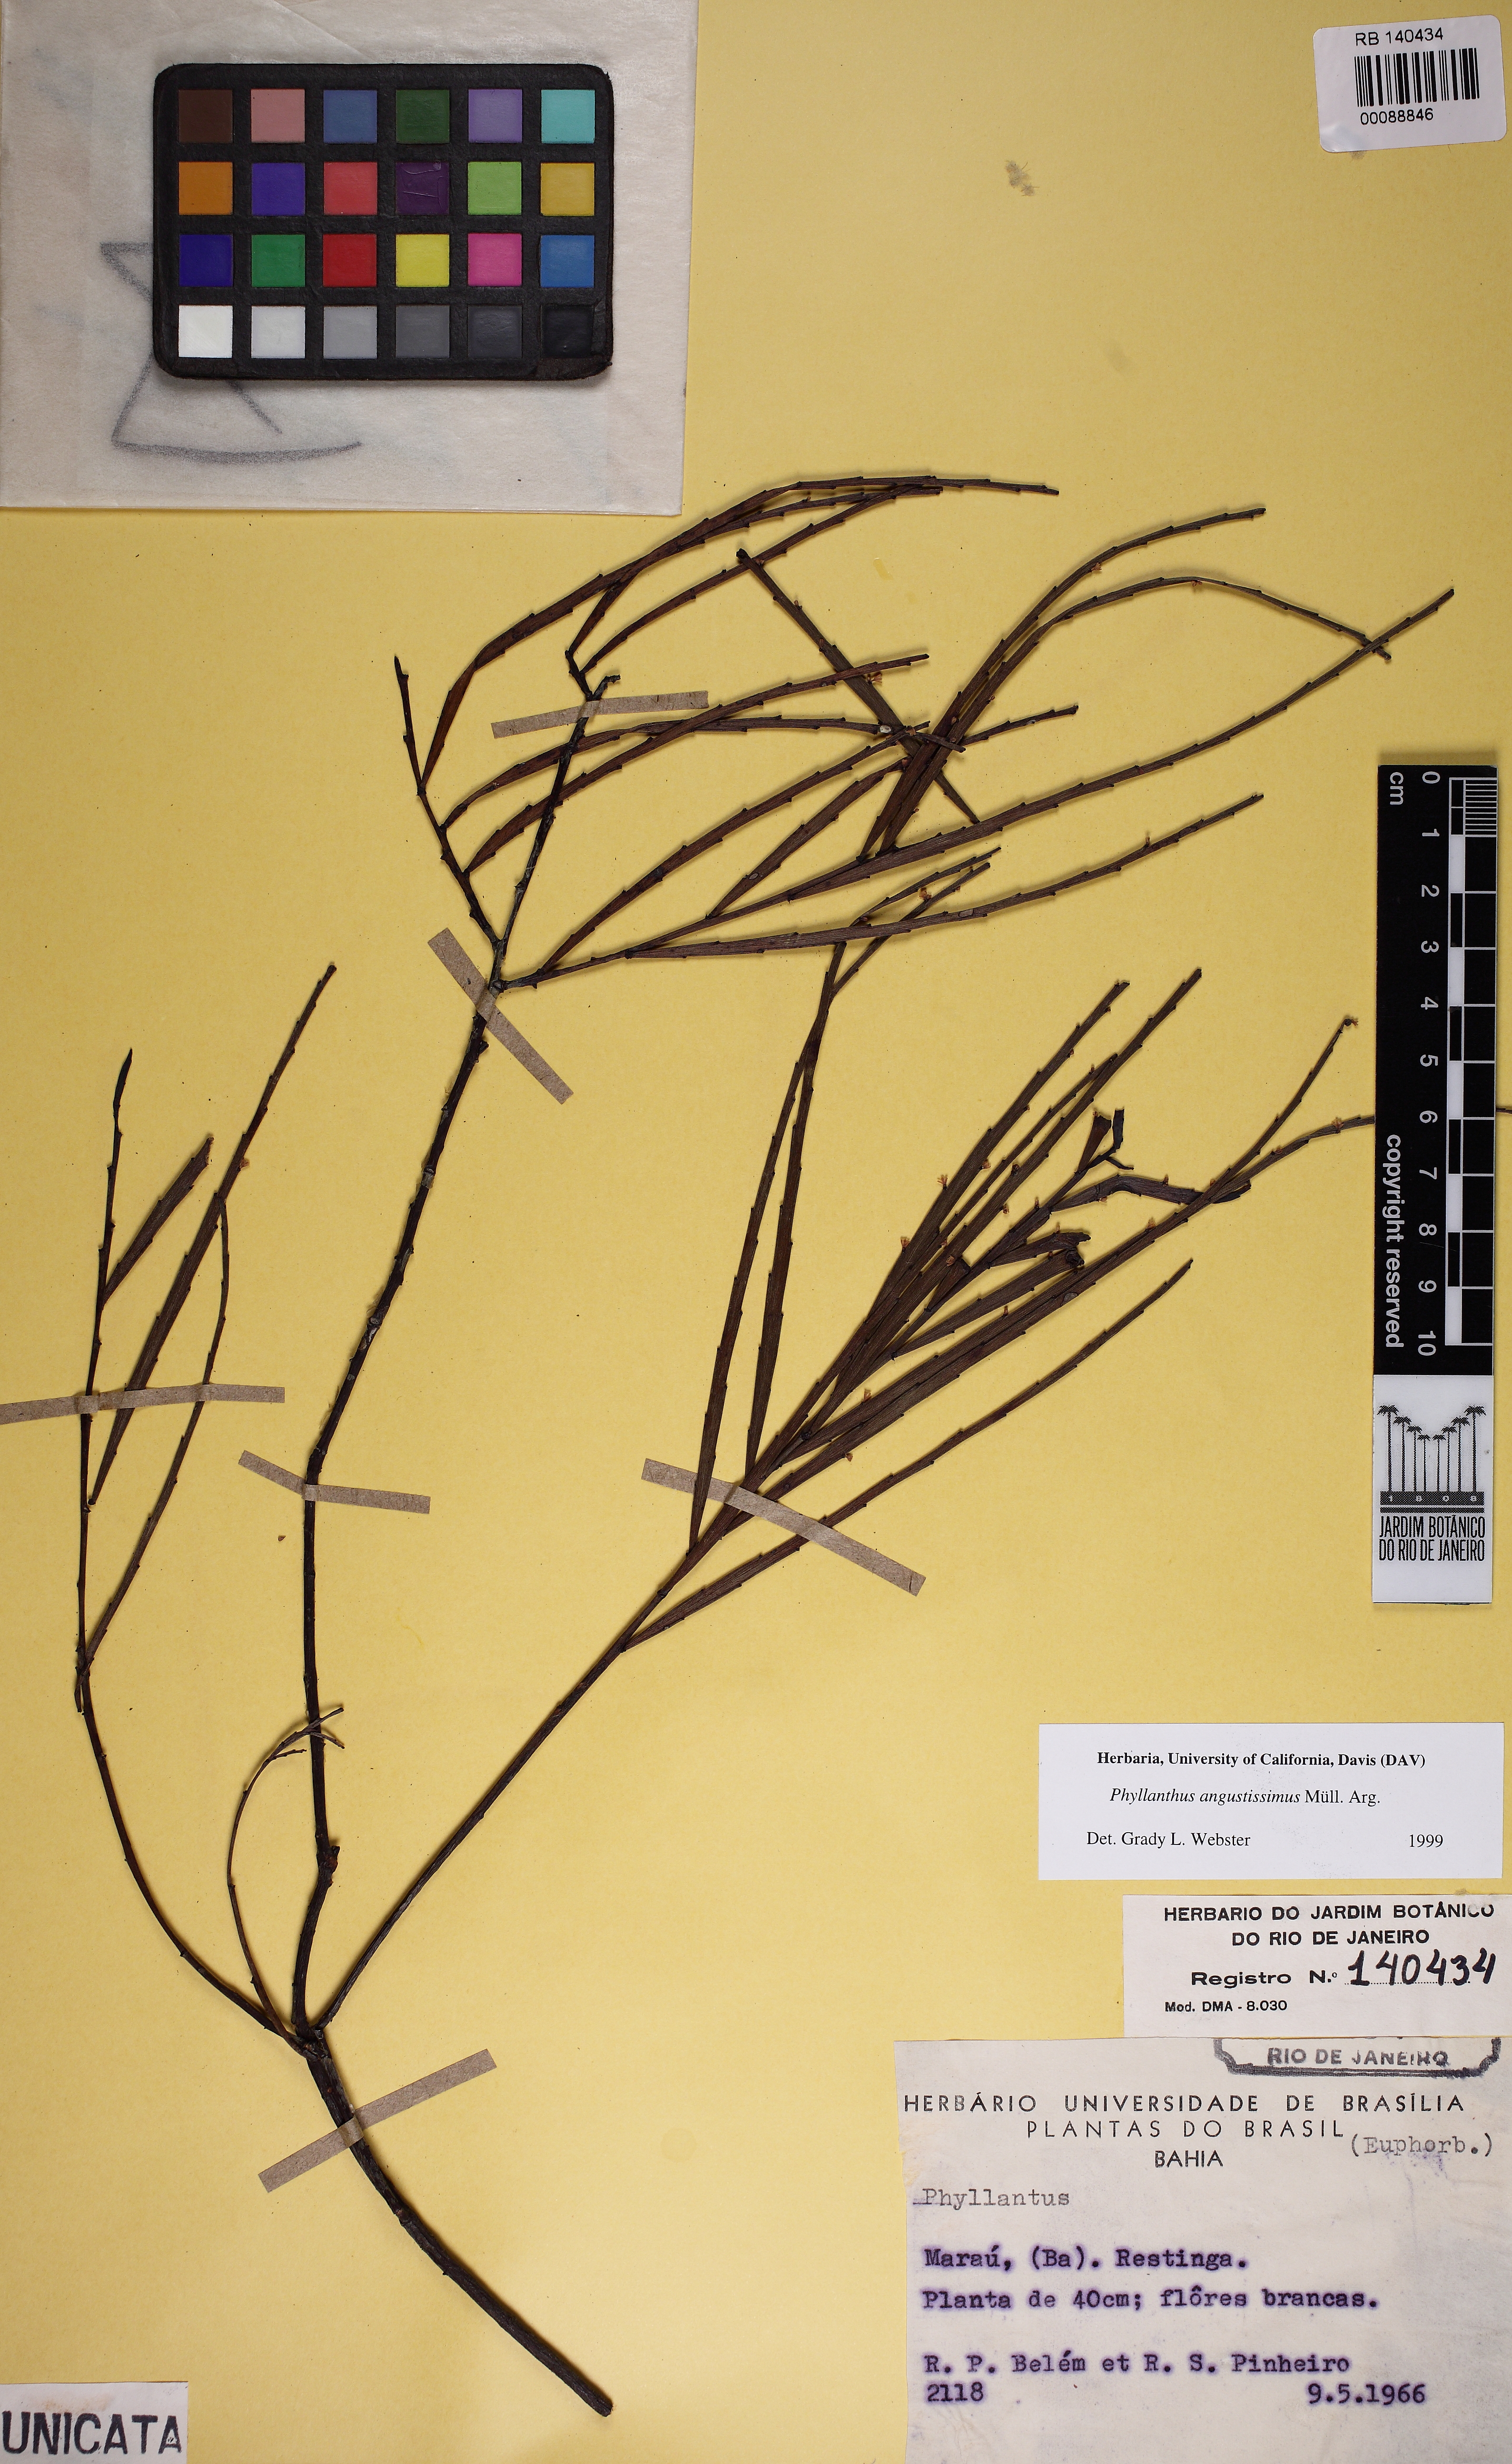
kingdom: Plantae
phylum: Tracheophyta
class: Magnoliopsida
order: Malpighiales
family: Phyllanthaceae
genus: Phyllanthus
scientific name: Phyllanthus angustissimus
